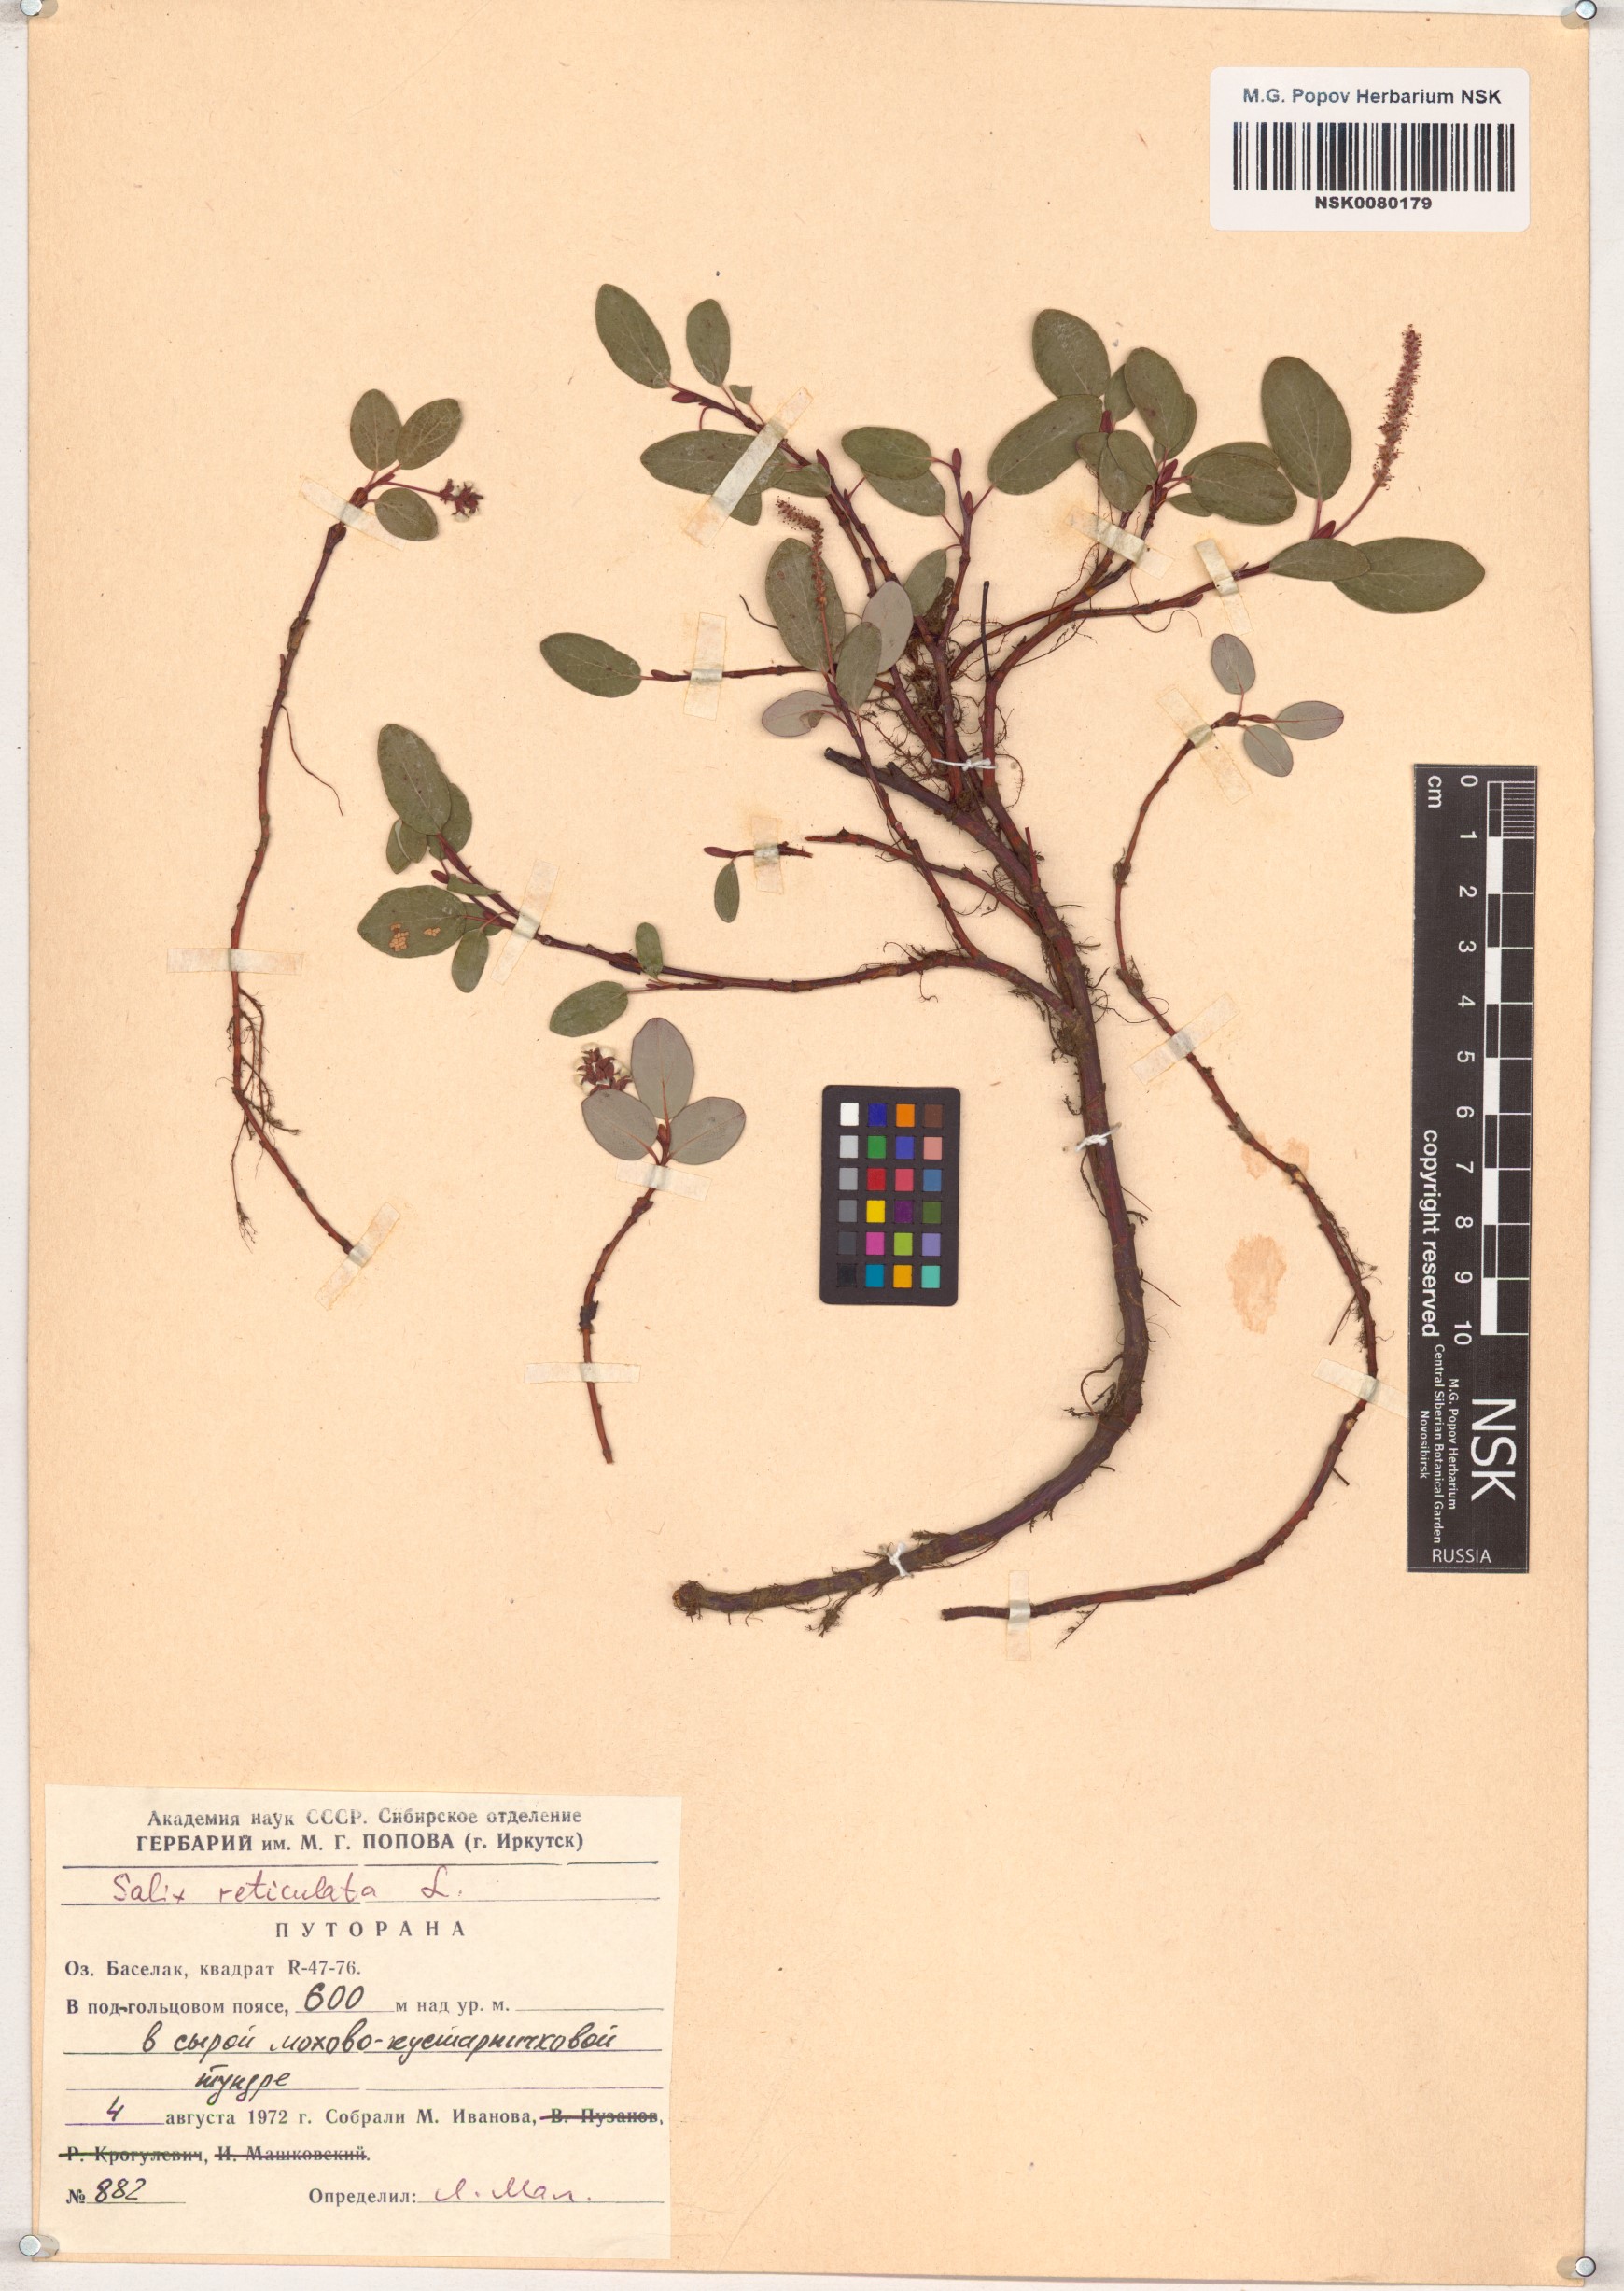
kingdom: Plantae
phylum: Tracheophyta
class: Magnoliopsida
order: Malpighiales
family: Salicaceae
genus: Salix
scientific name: Salix reticulata
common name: Net-leaved willow
